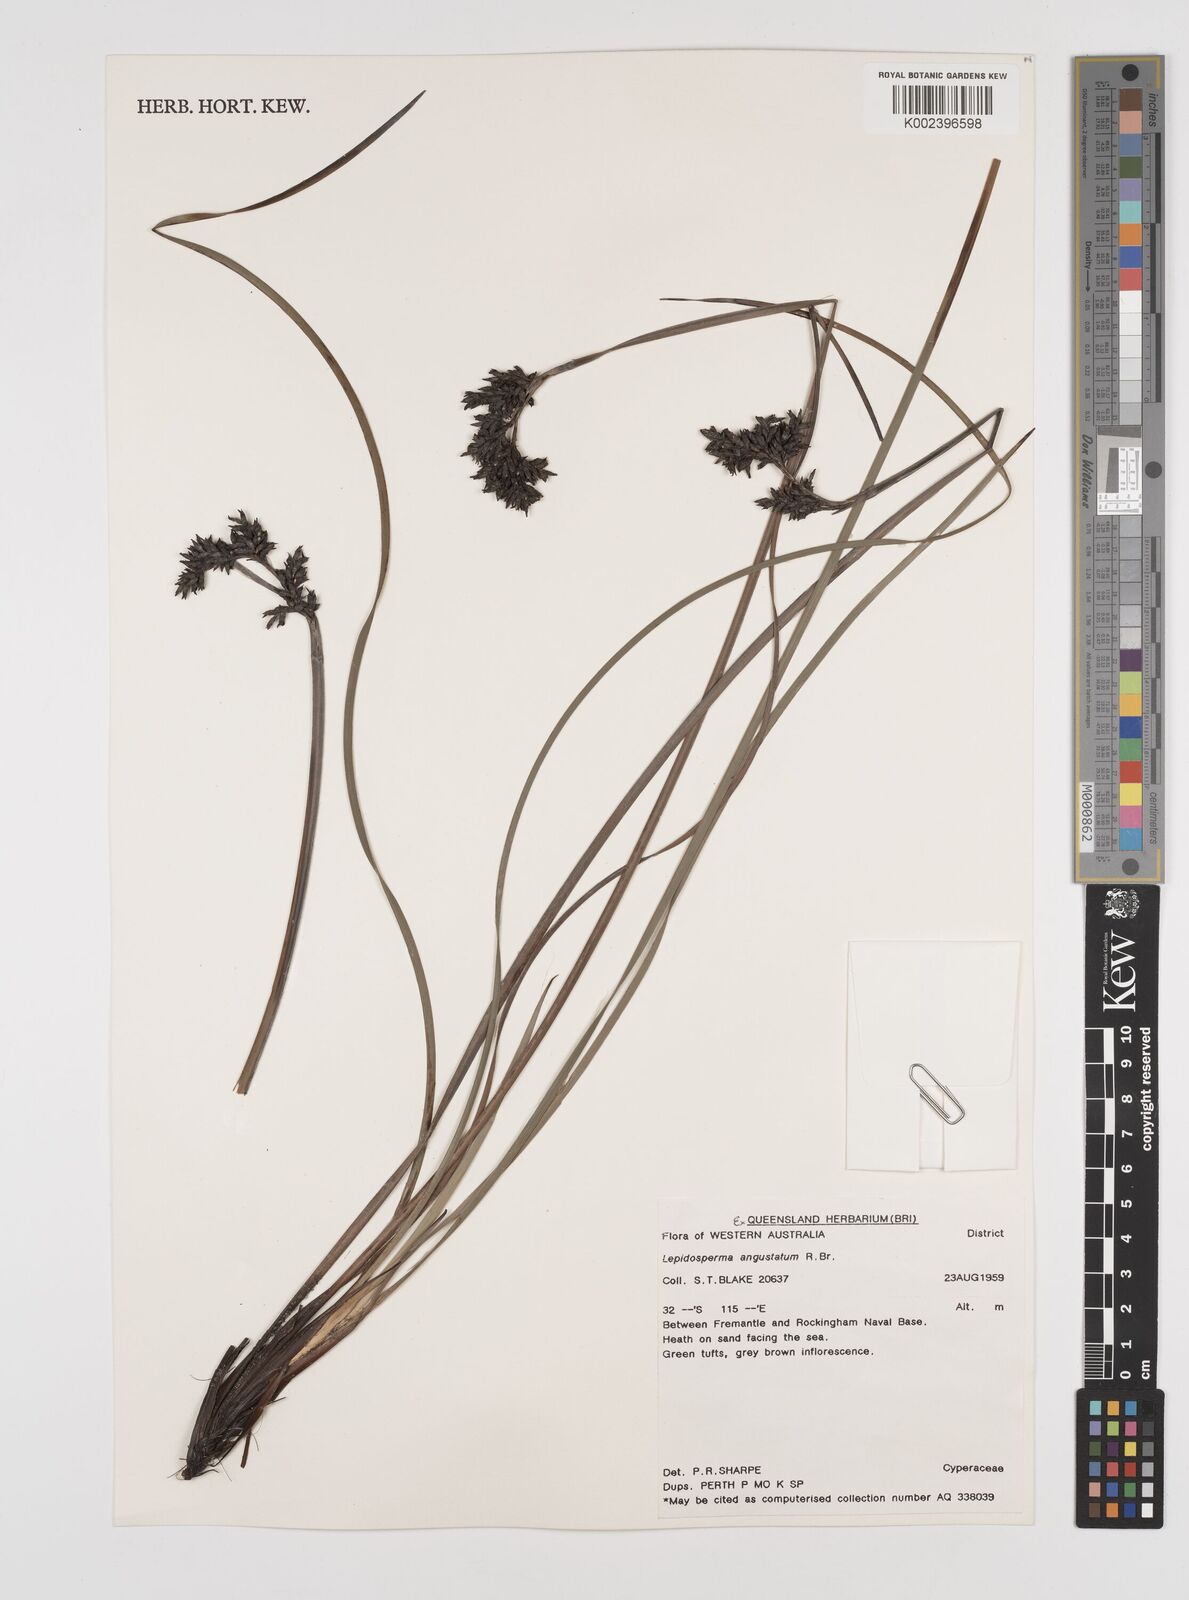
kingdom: Plantae
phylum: Tracheophyta
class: Liliopsida
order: Poales
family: Cyperaceae
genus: Lepidosperma
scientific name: Lepidosperma angustatum
